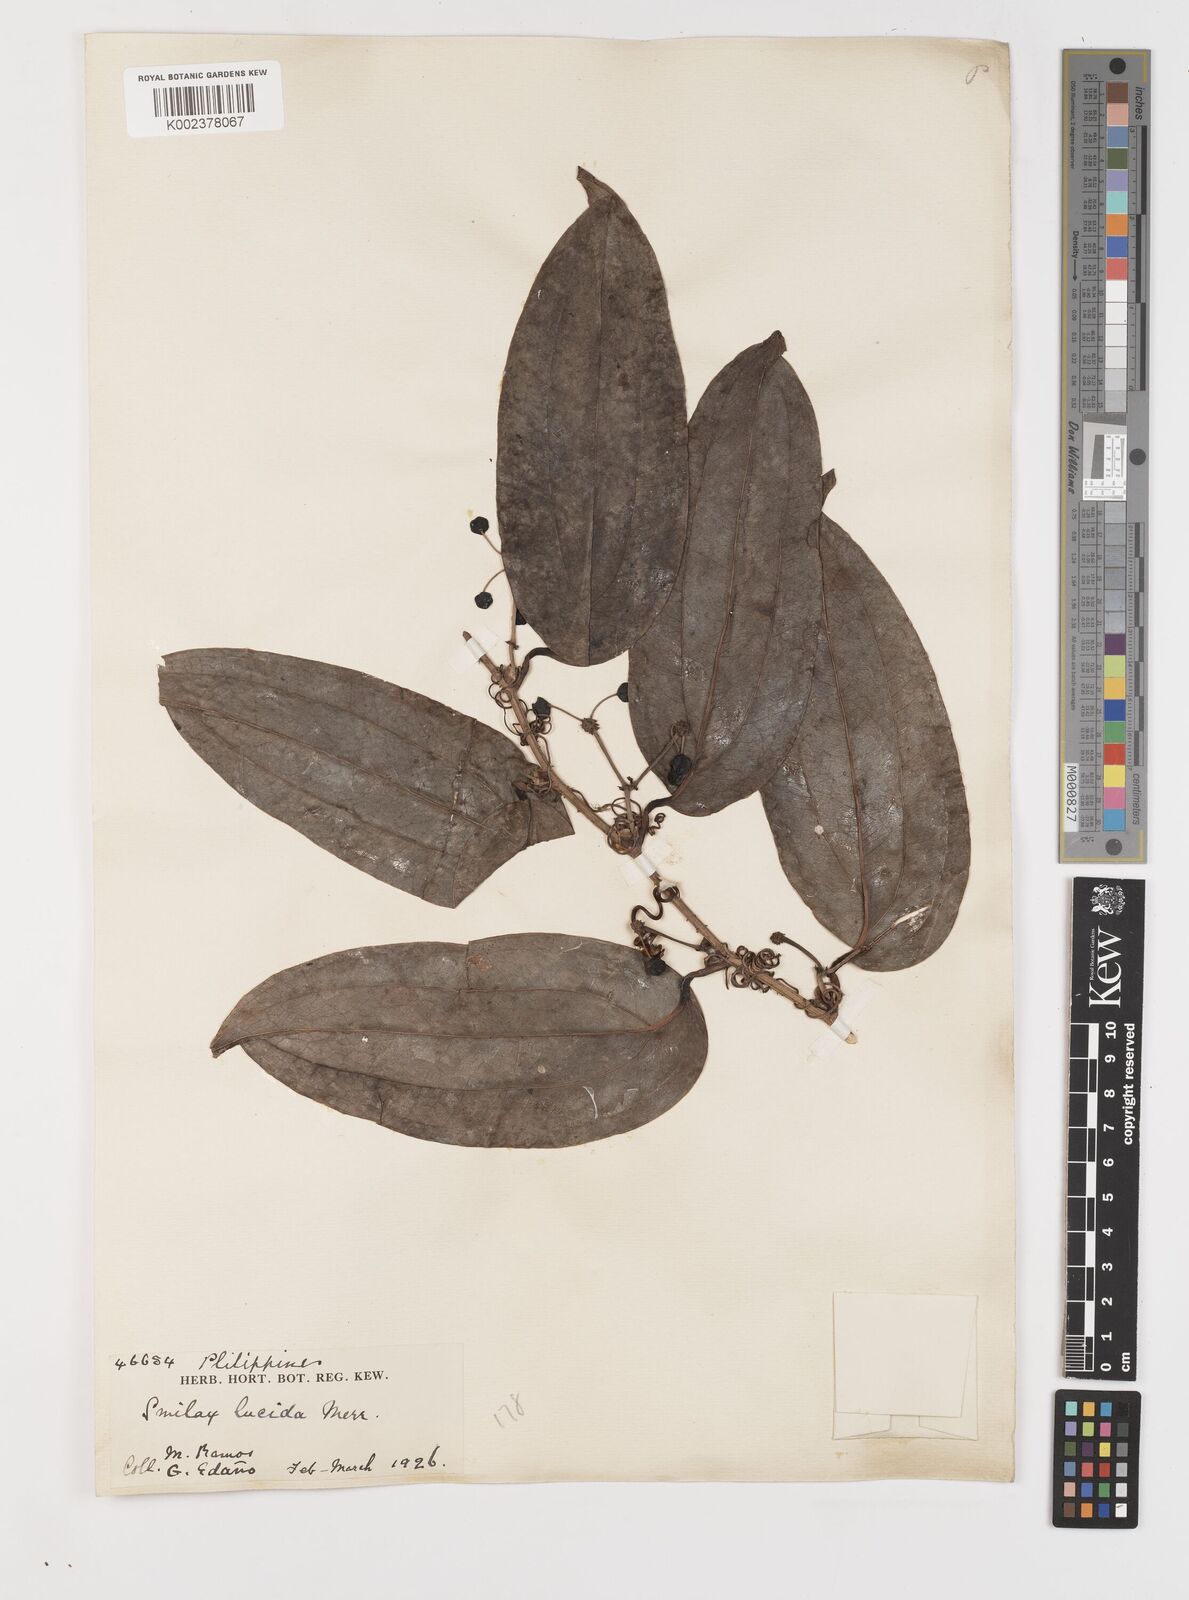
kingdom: Plantae
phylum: Tracheophyta
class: Liliopsida
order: Liliales
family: Smilacaceae
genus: Smilax
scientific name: Smilax lucida
